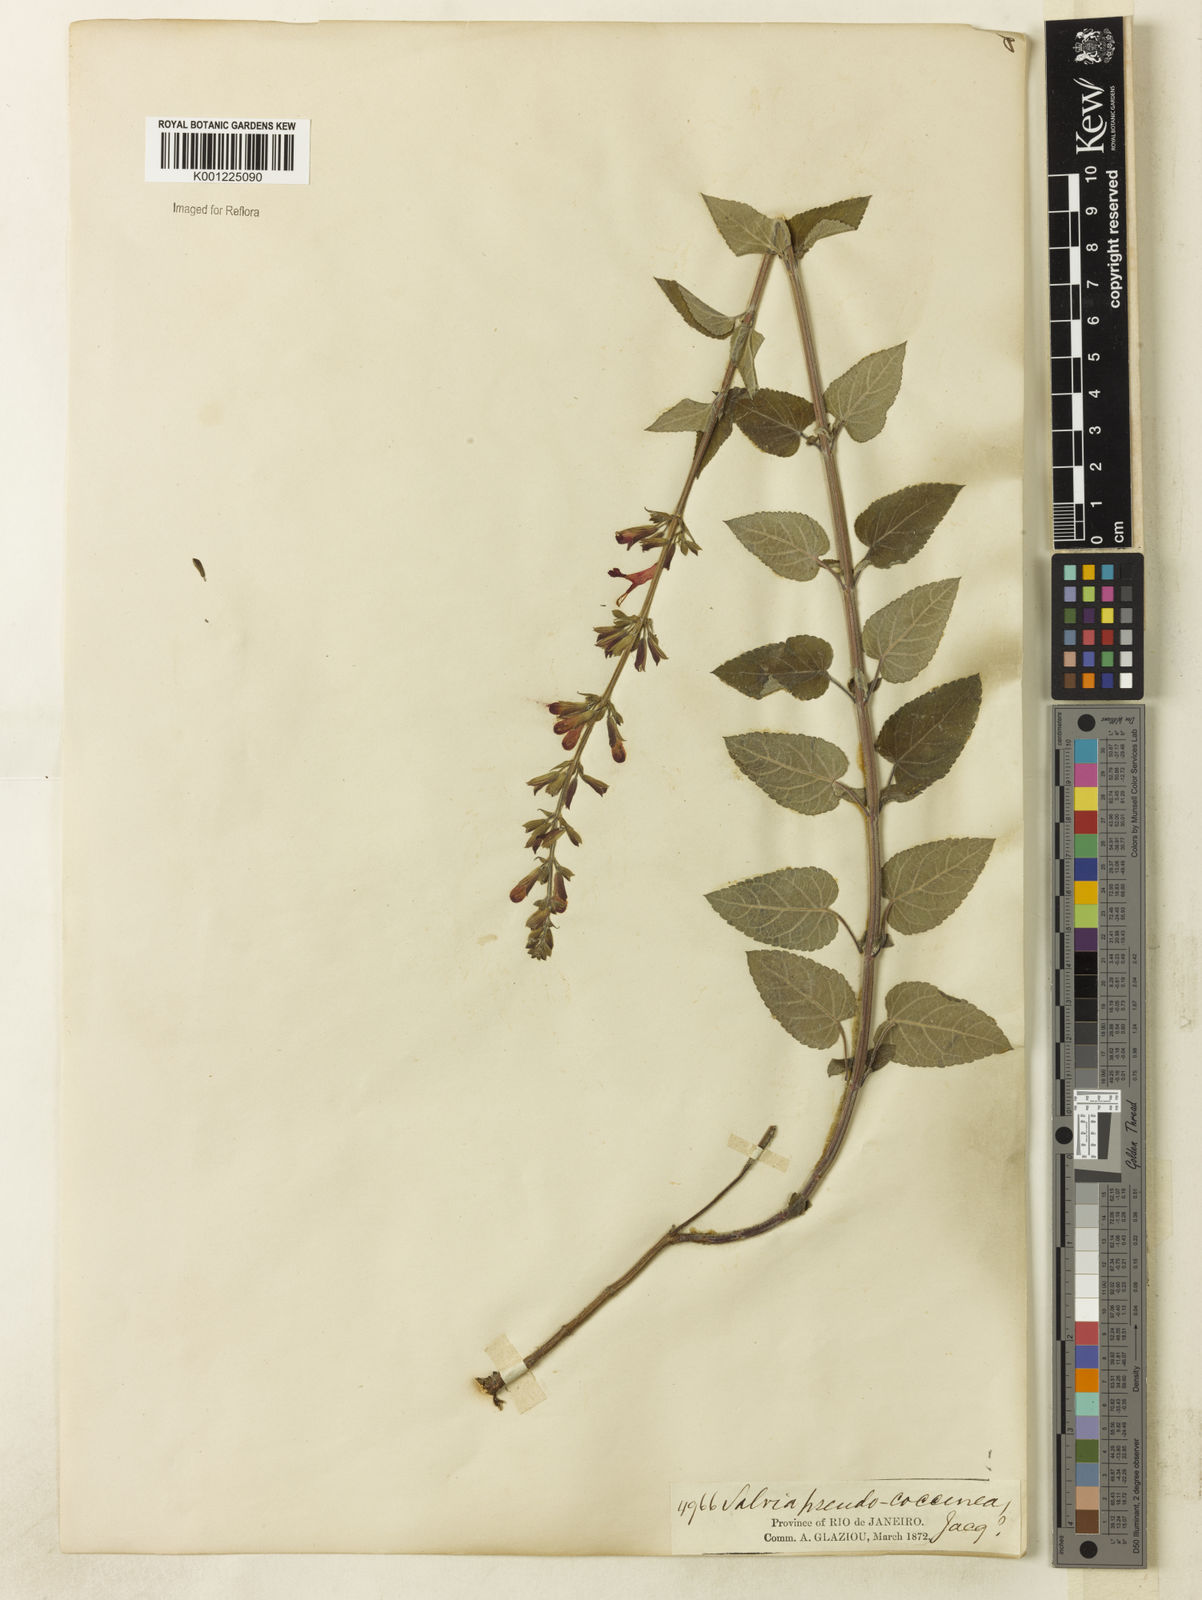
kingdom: Plantae
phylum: Tracheophyta
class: Magnoliopsida
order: Lamiales
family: Lamiaceae
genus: Salvia
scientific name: Salvia coccinea
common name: Blood sage
